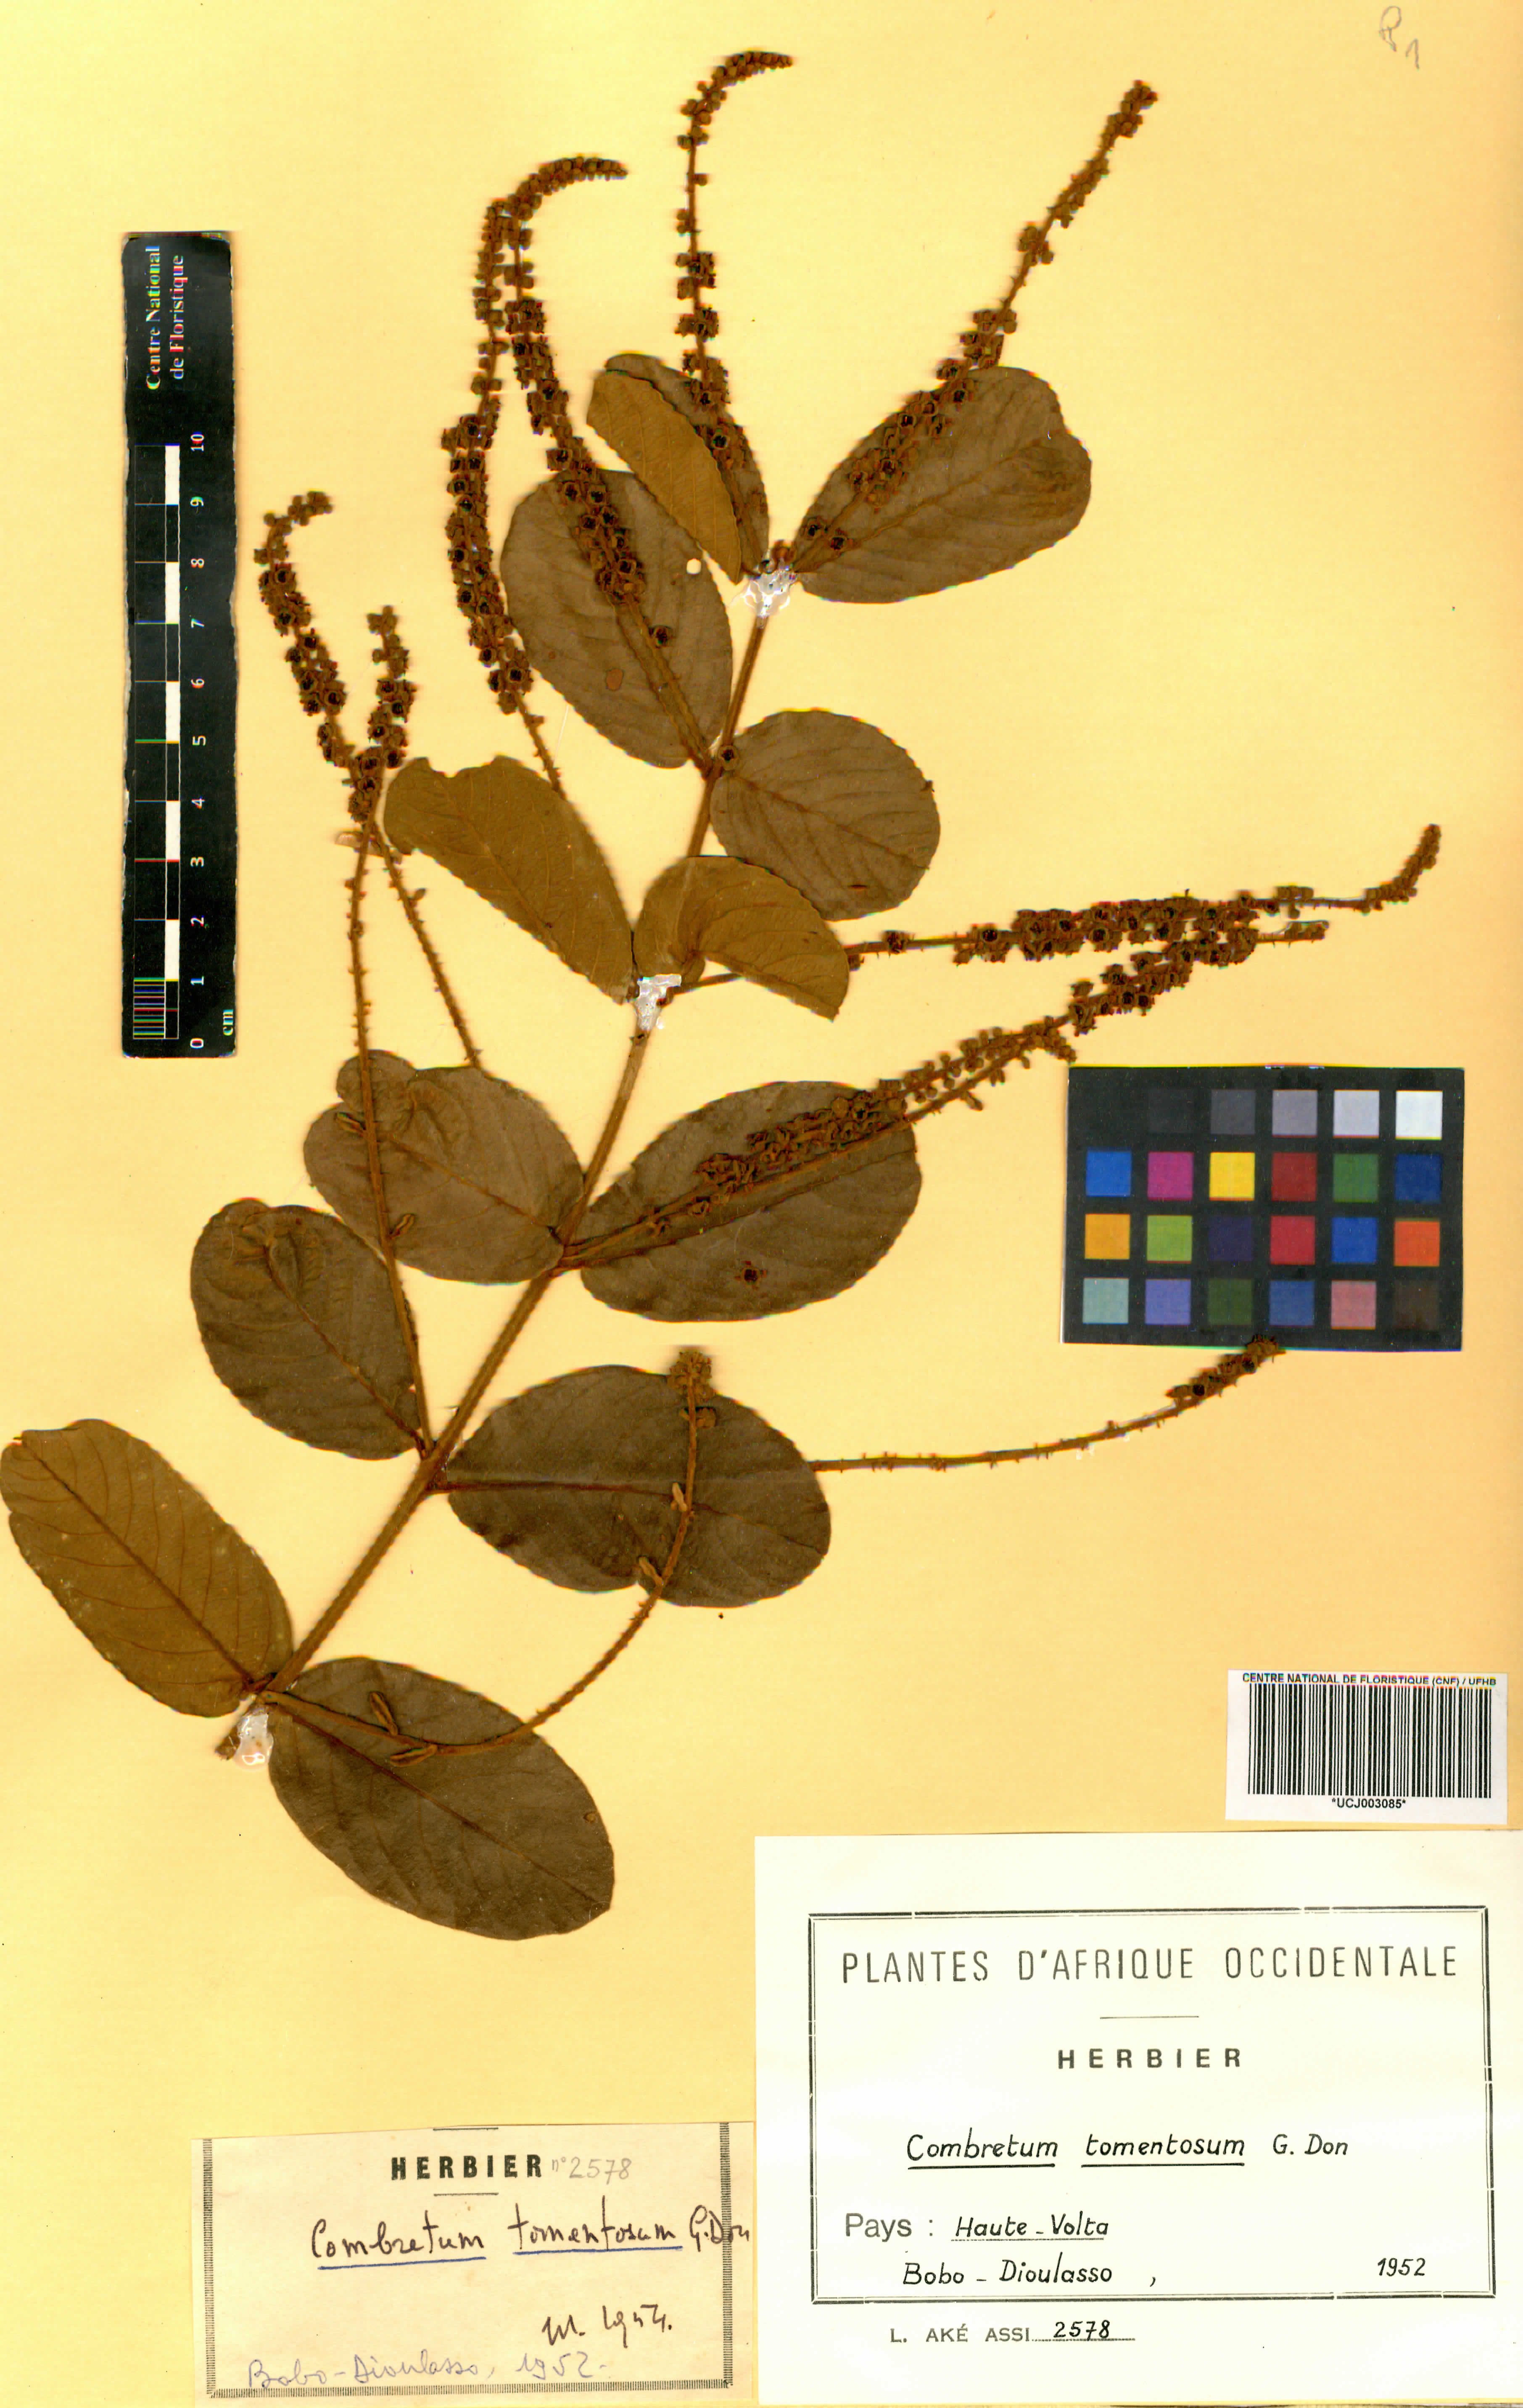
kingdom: Plantae
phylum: Tracheophyta
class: Magnoliopsida
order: Myrtales
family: Combretaceae
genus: Combretum
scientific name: Combretum tomentosum
